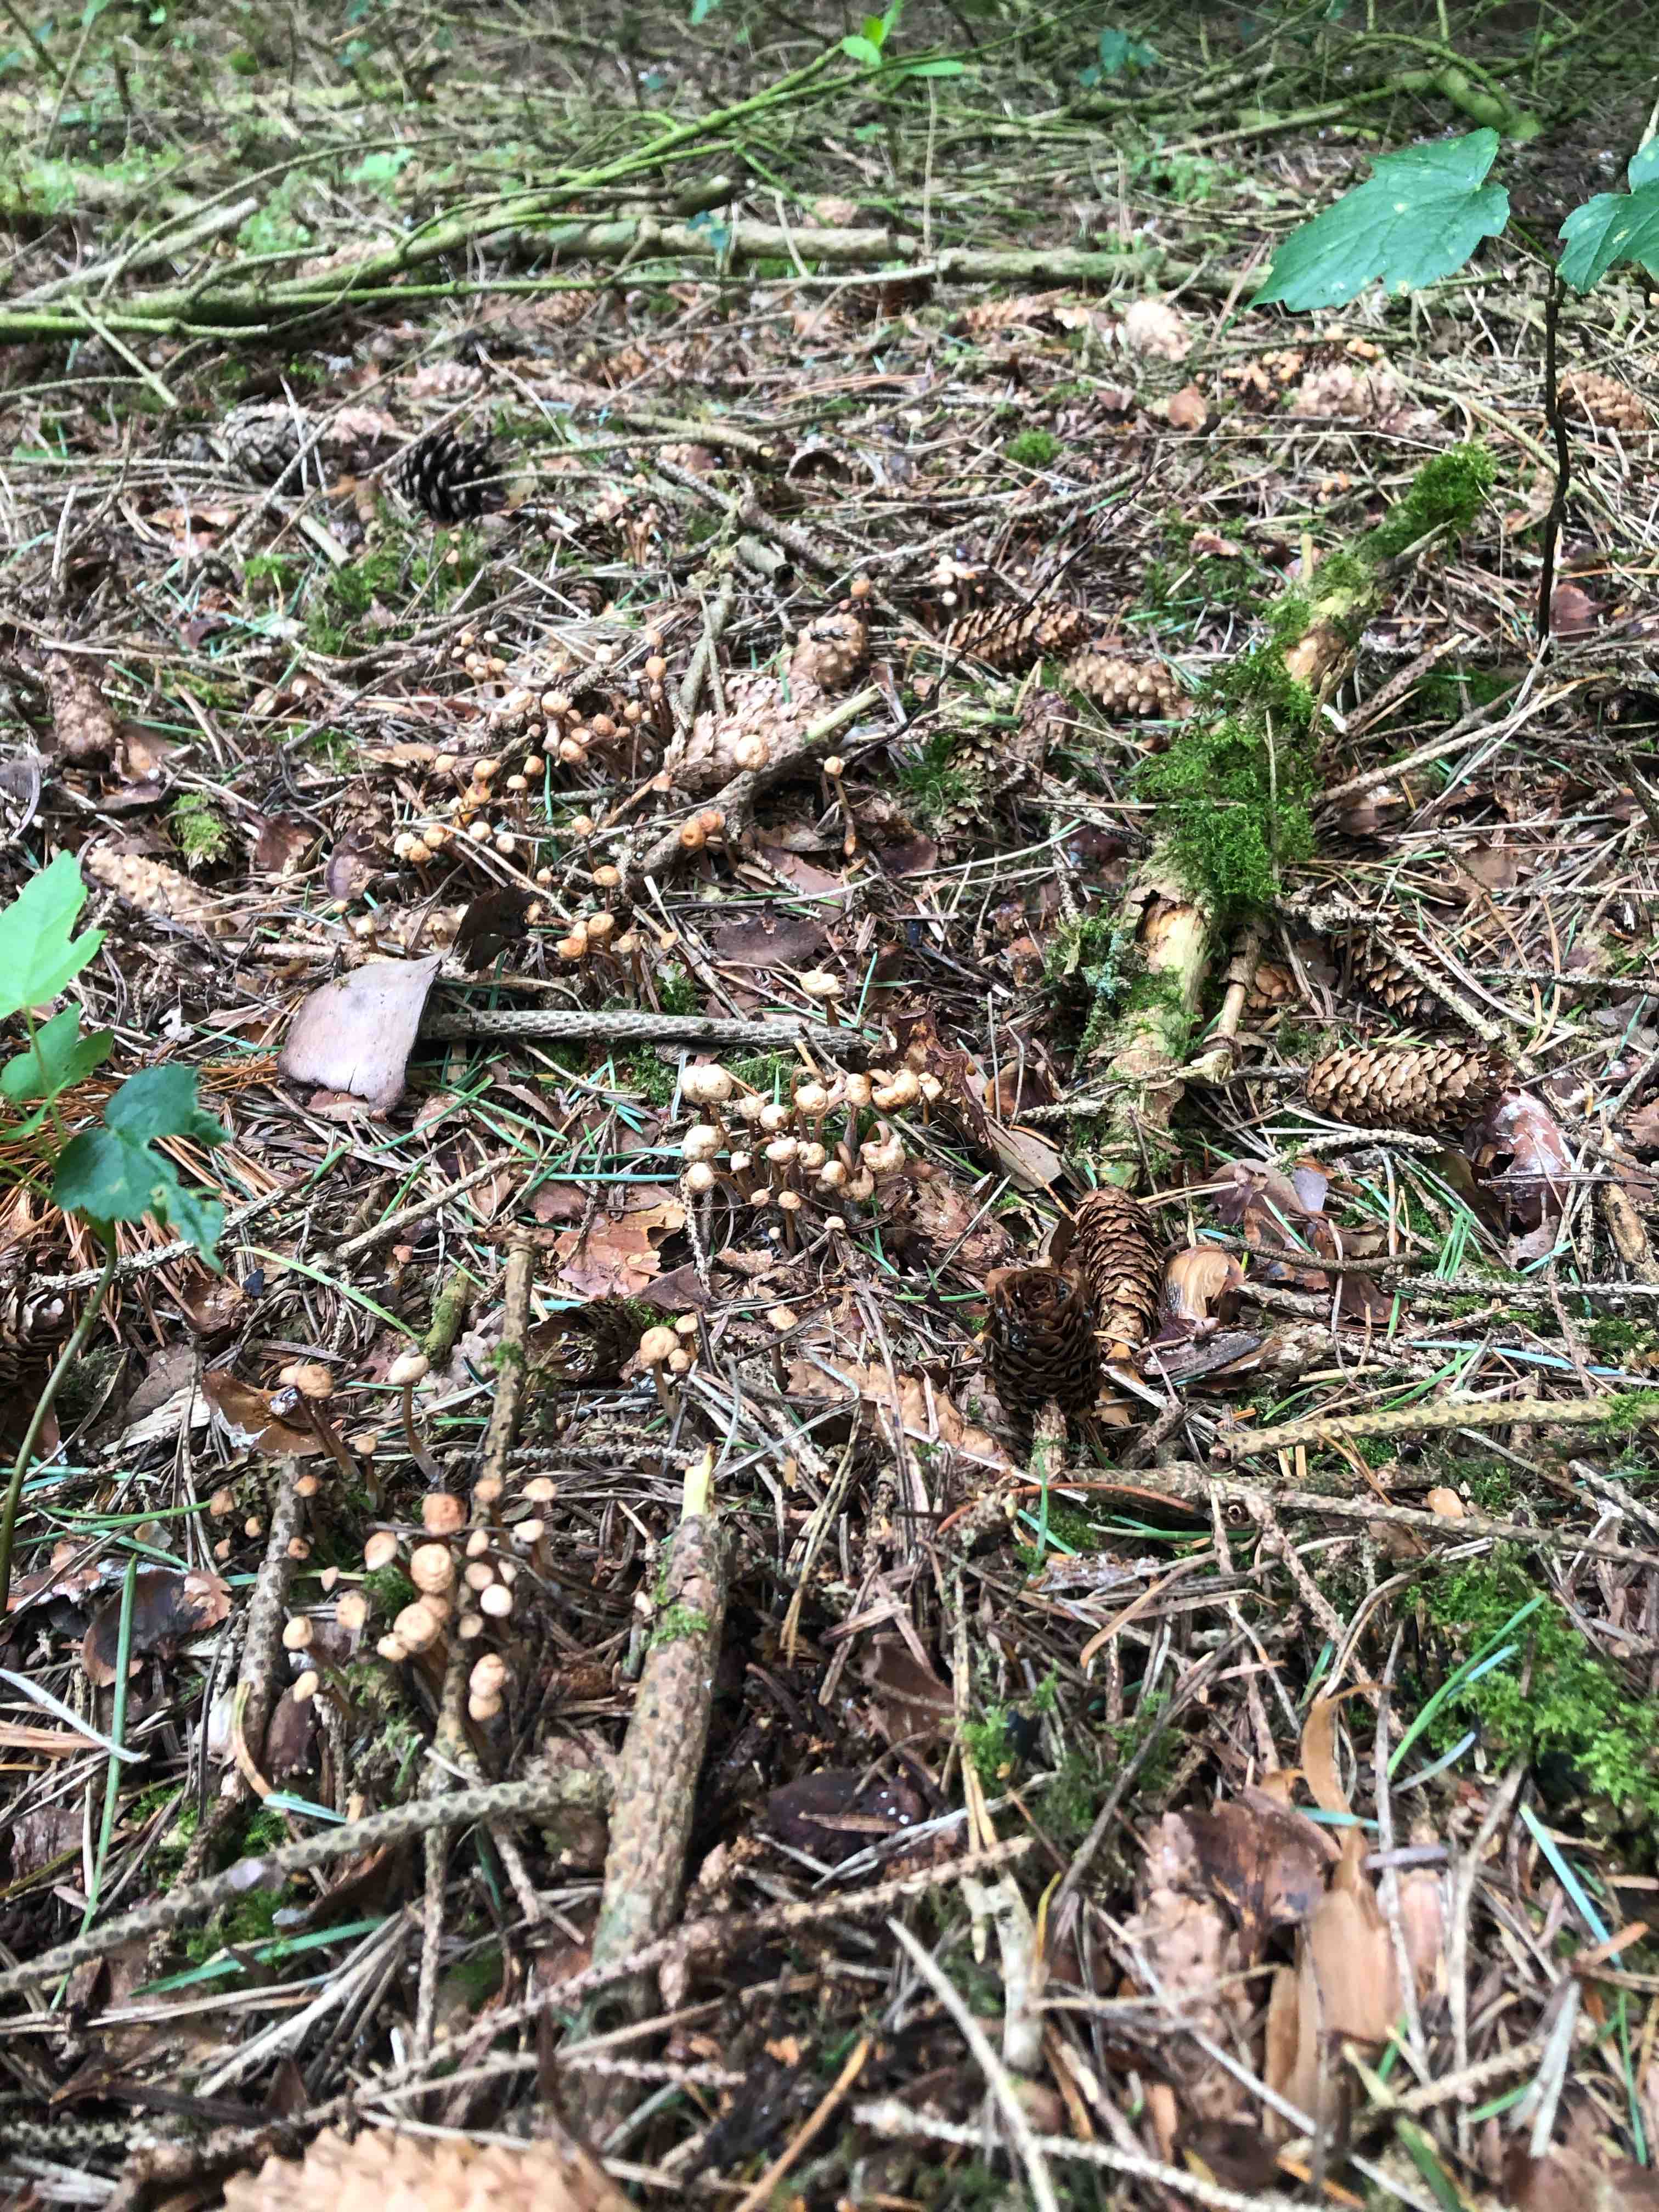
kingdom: Fungi
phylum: Basidiomycota
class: Agaricomycetes
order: Agaricales
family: Omphalotaceae
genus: Collybiopsis
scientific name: Collybiopsis confluens
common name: knippe-fladhat
